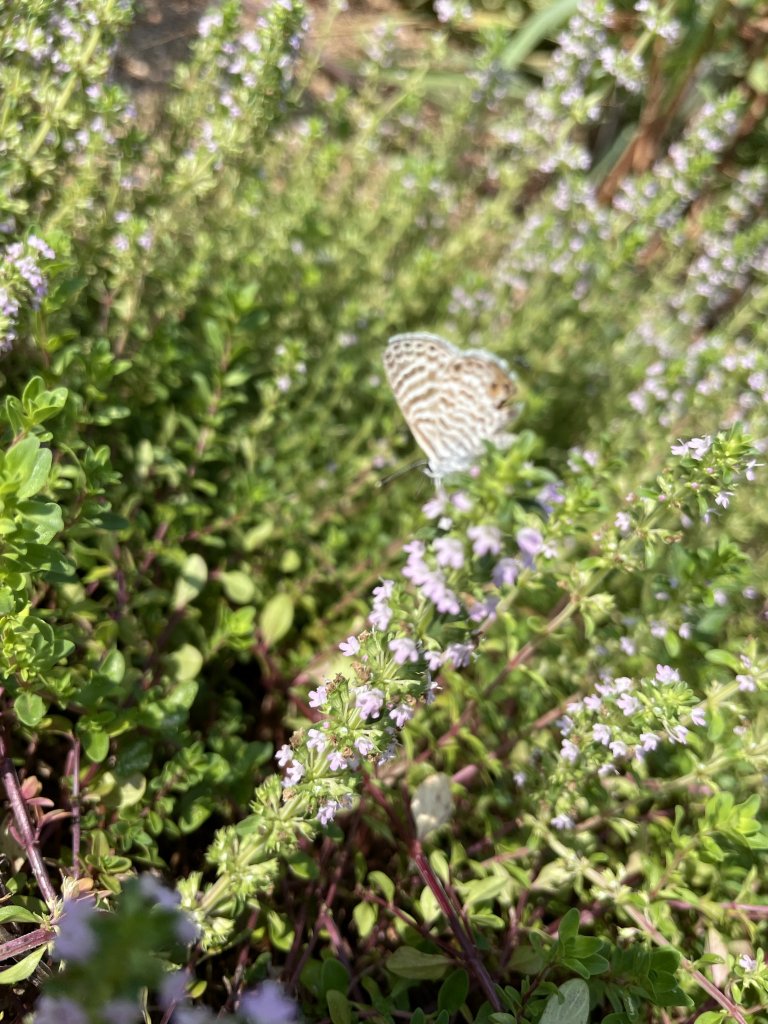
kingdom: Animalia
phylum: Arthropoda
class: Insecta
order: Lepidoptera
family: Lycaenidae
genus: Leptotes
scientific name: Leptotes marina
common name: Marine Blue
